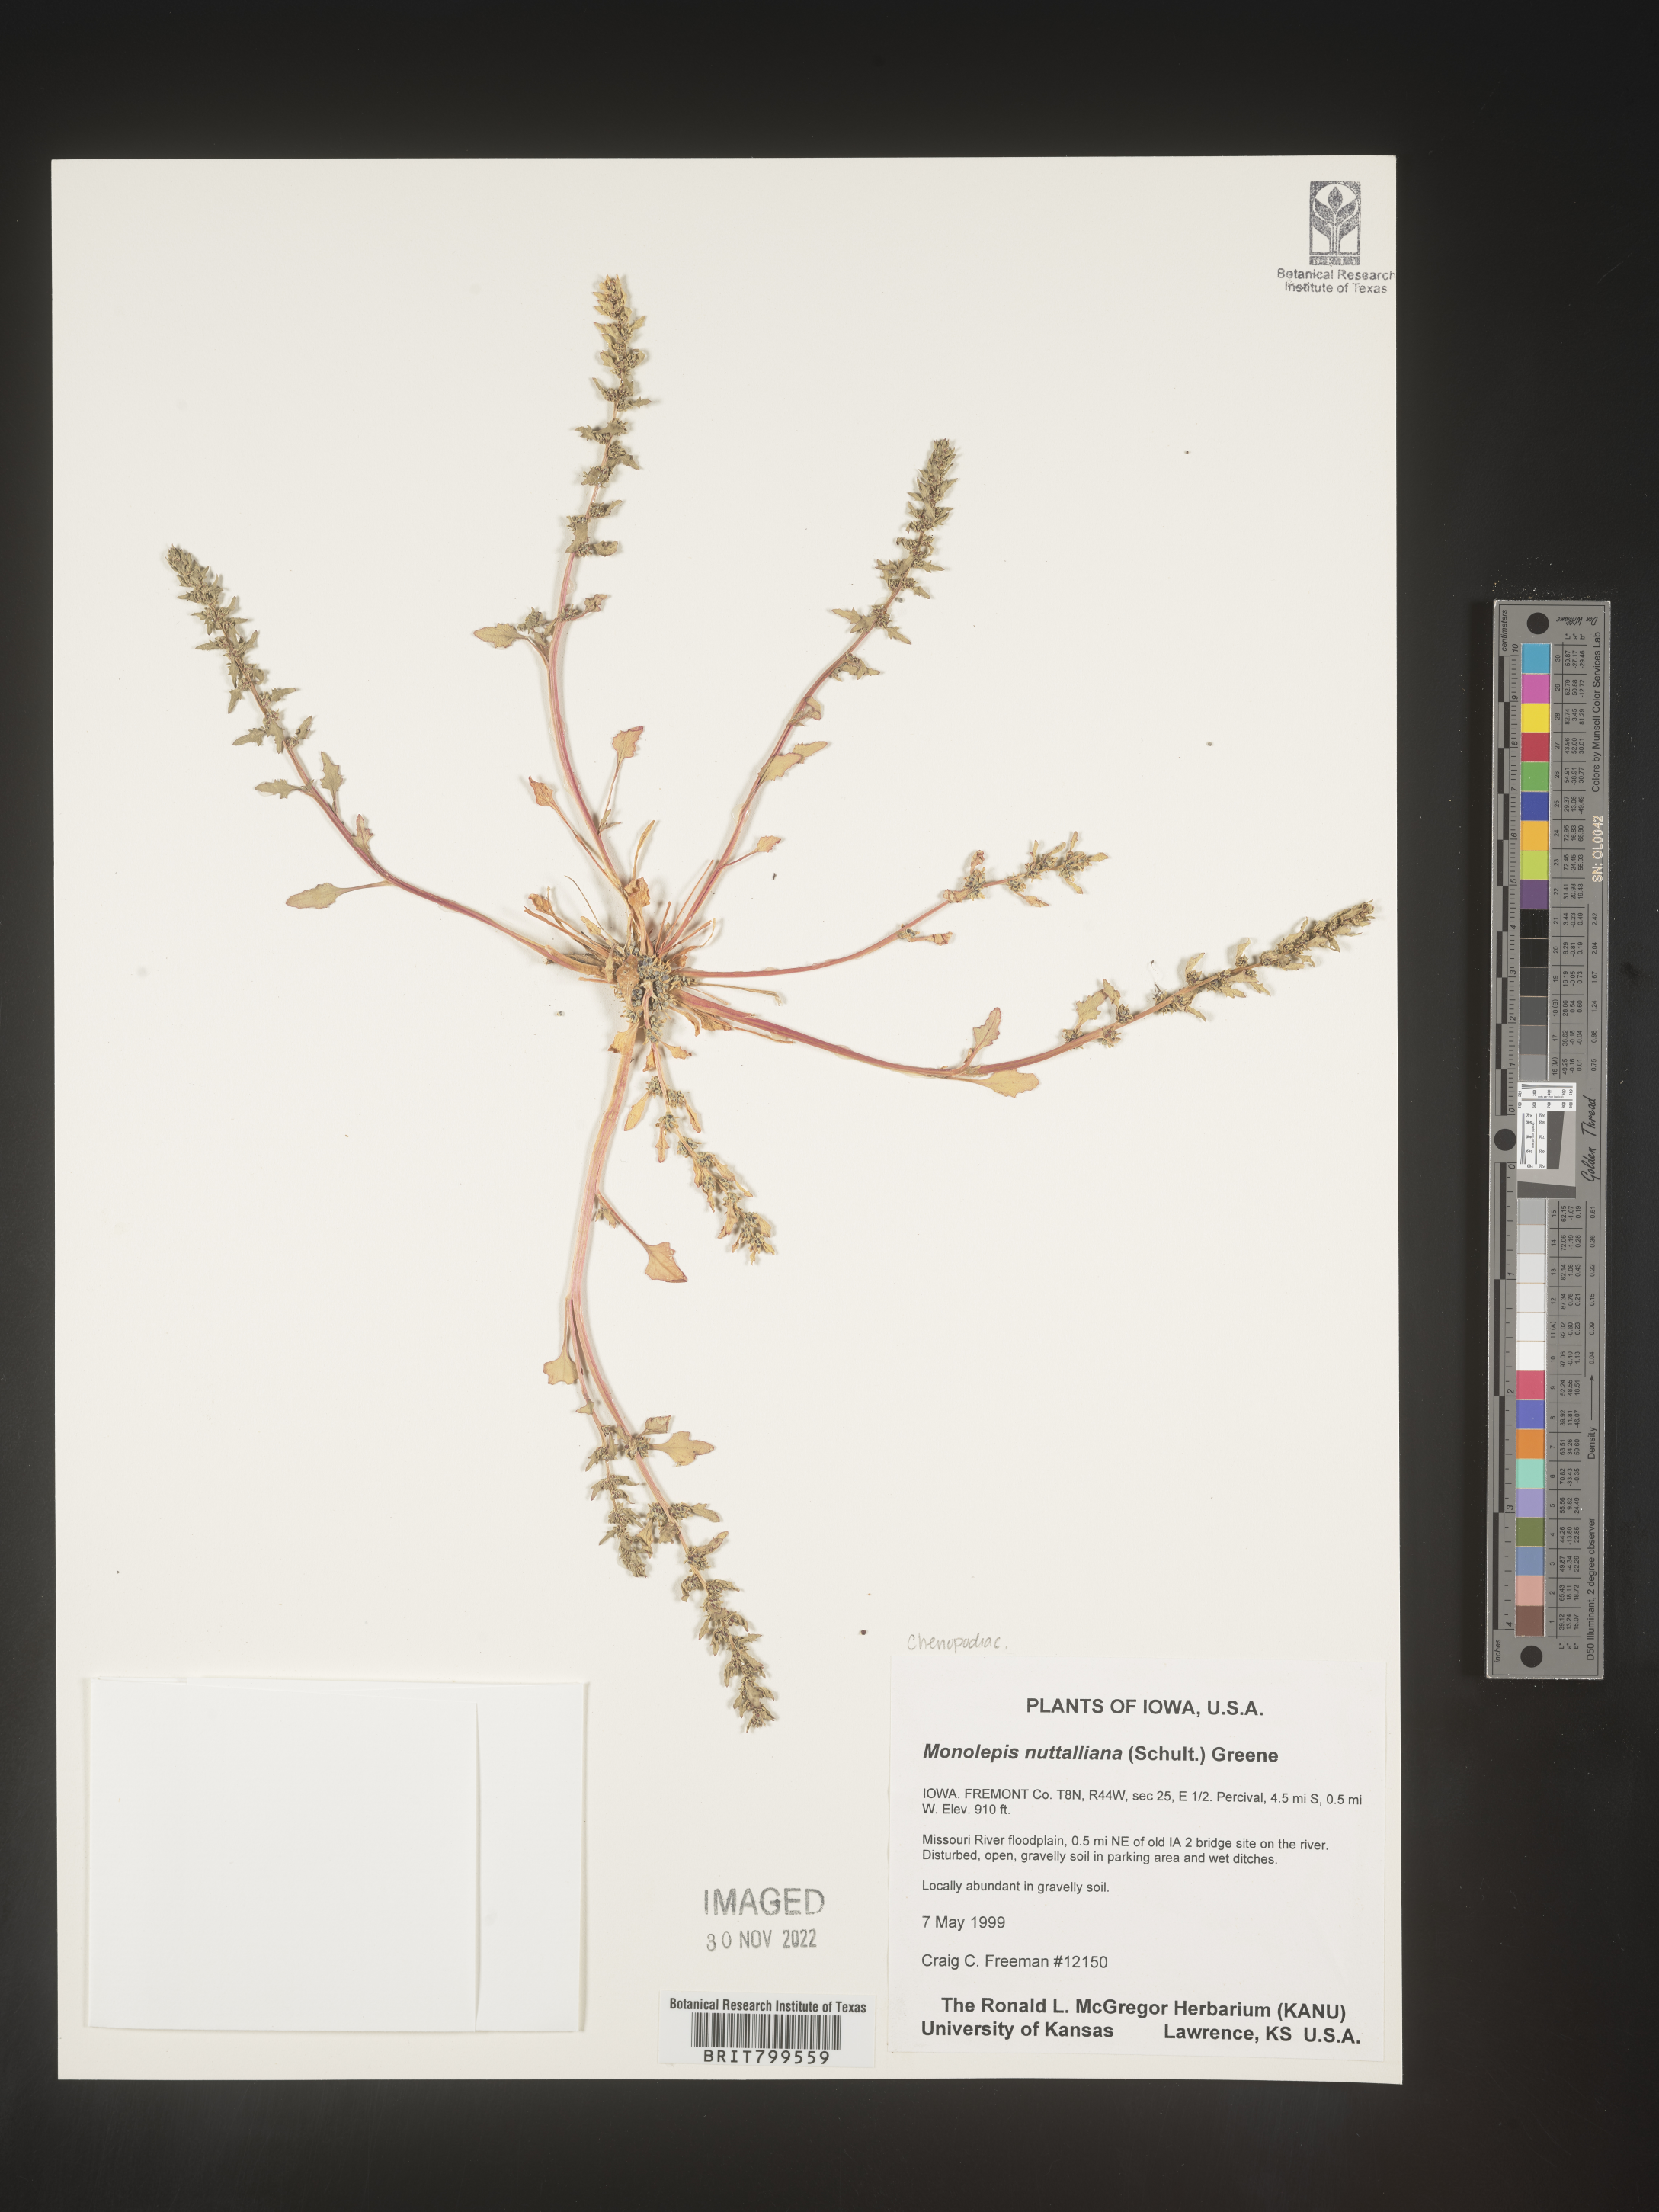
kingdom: Plantae
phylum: Tracheophyta
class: Magnoliopsida
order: Caryophyllales
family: Amaranthaceae
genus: Blitum
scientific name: Blitum
